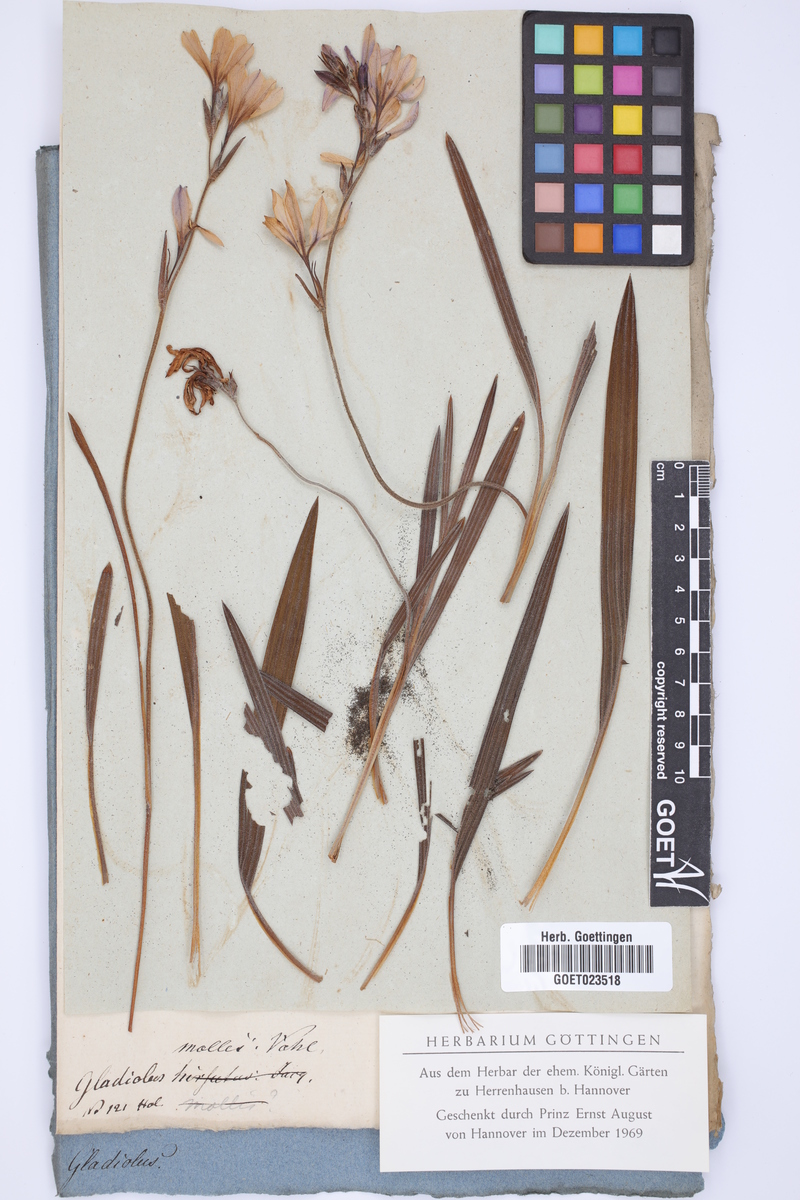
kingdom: Plantae
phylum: Tracheophyta
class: Liliopsida
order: Asparagales
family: Iridaceae
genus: Babiana
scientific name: Babiana hirsuta
